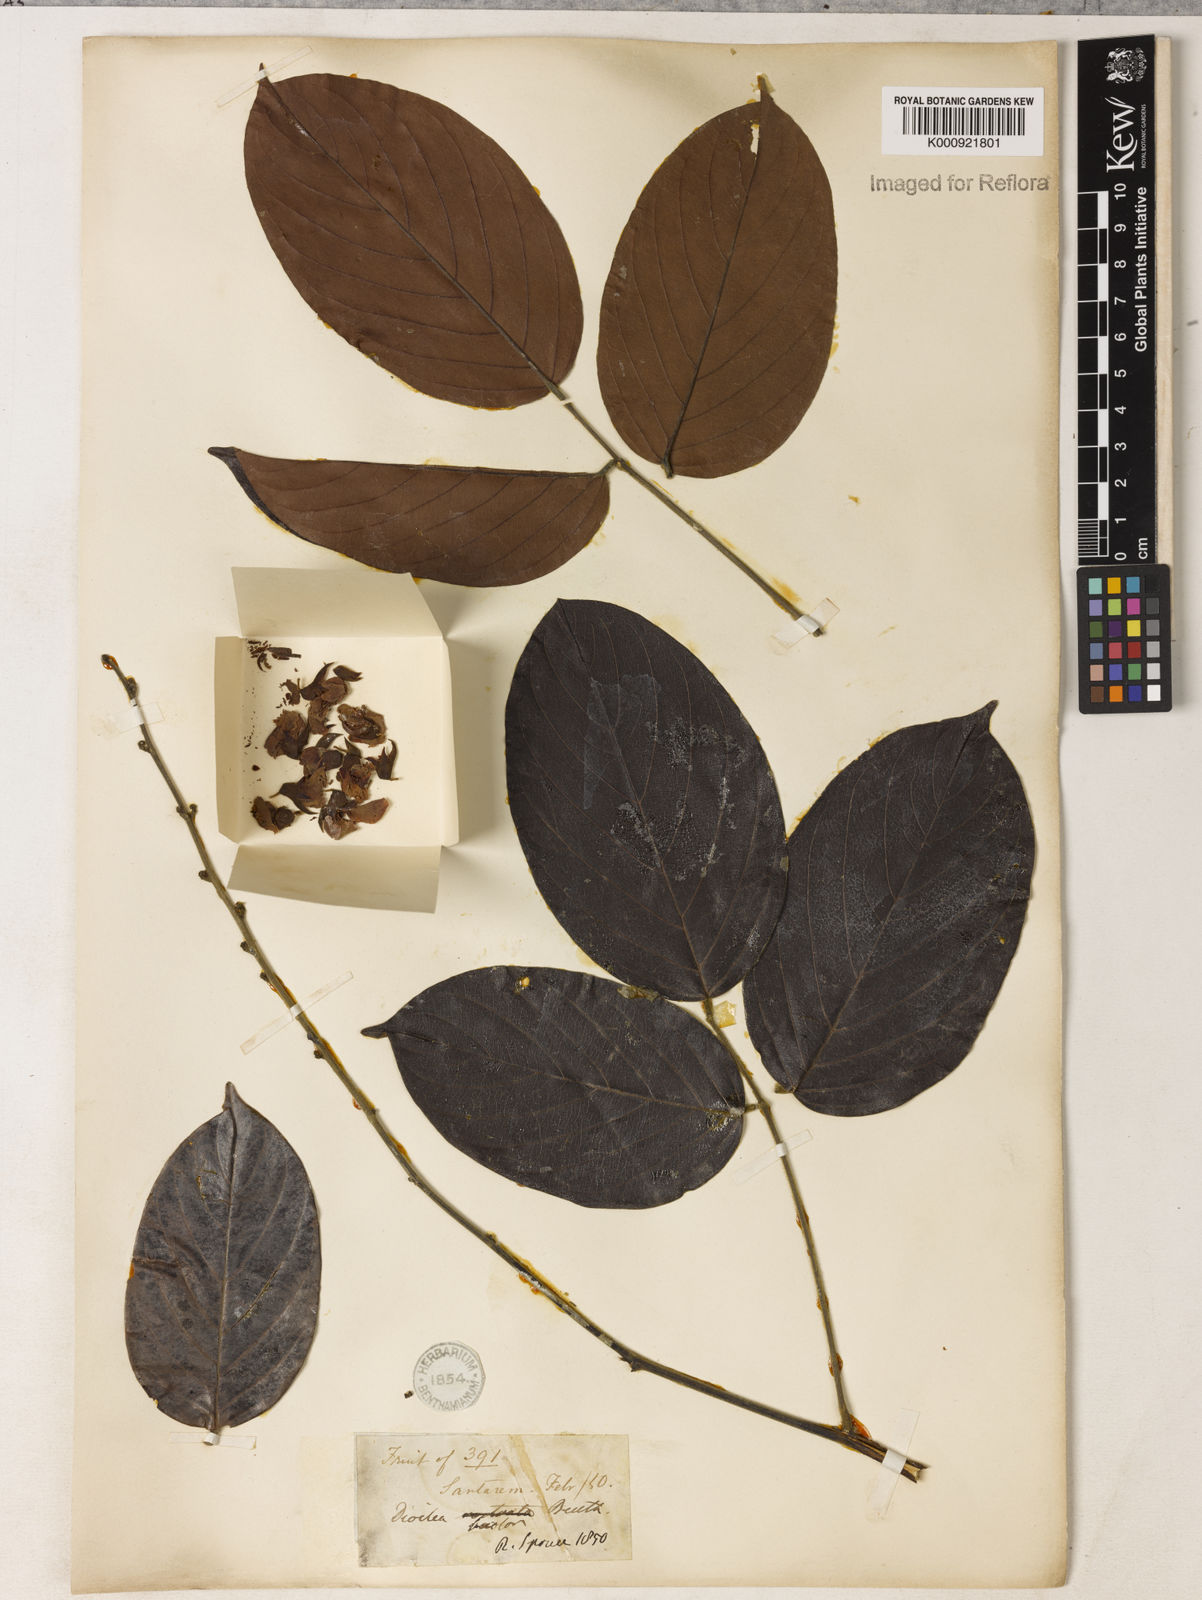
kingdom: Plantae
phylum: Tracheophyta
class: Magnoliopsida
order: Fabales
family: Fabaceae
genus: Macropsychanthus
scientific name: Macropsychanthus bicolor
